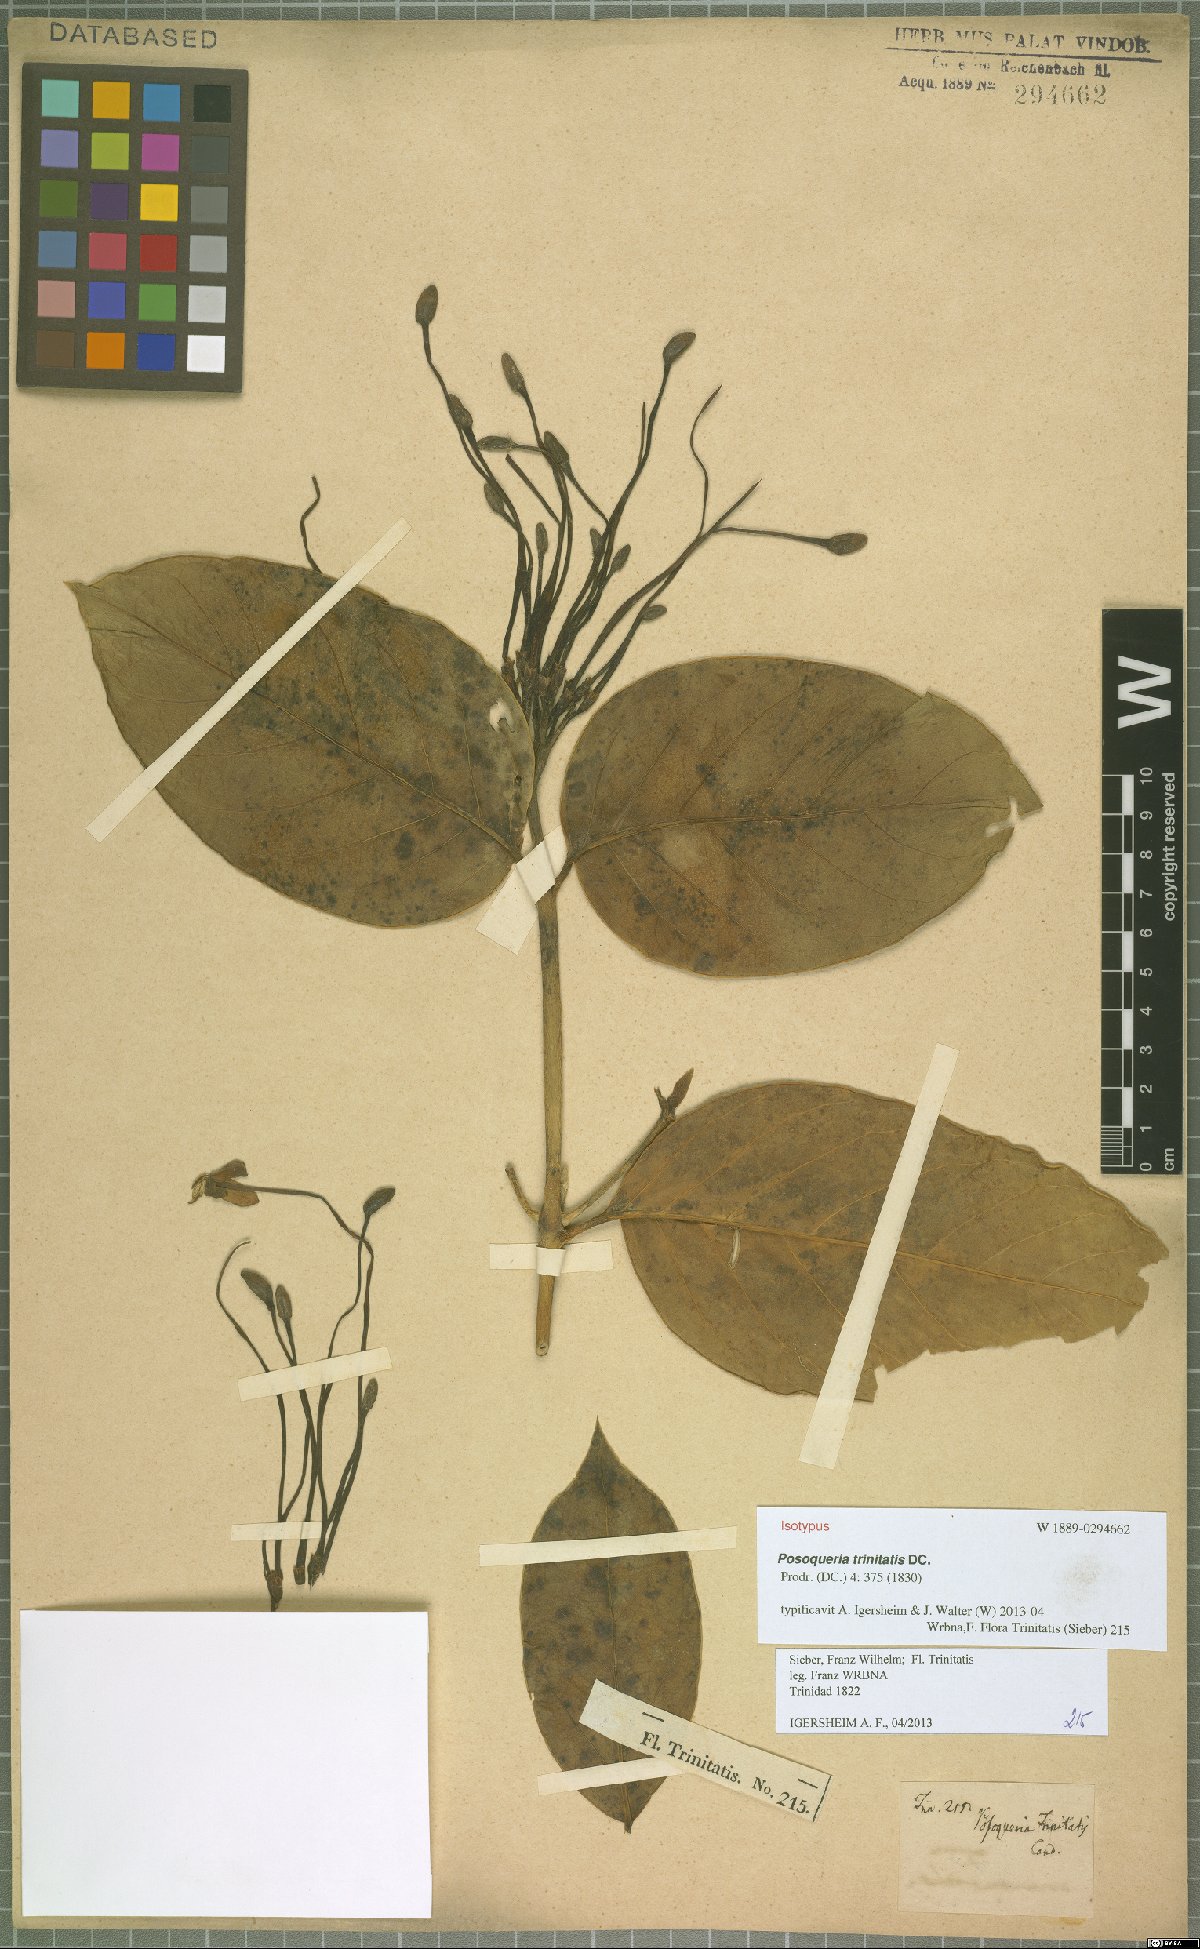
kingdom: Plantae
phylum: Tracheophyta
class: Magnoliopsida
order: Gentianales
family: Rubiaceae
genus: Posoqueria
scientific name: Posoqueria trinitatis
